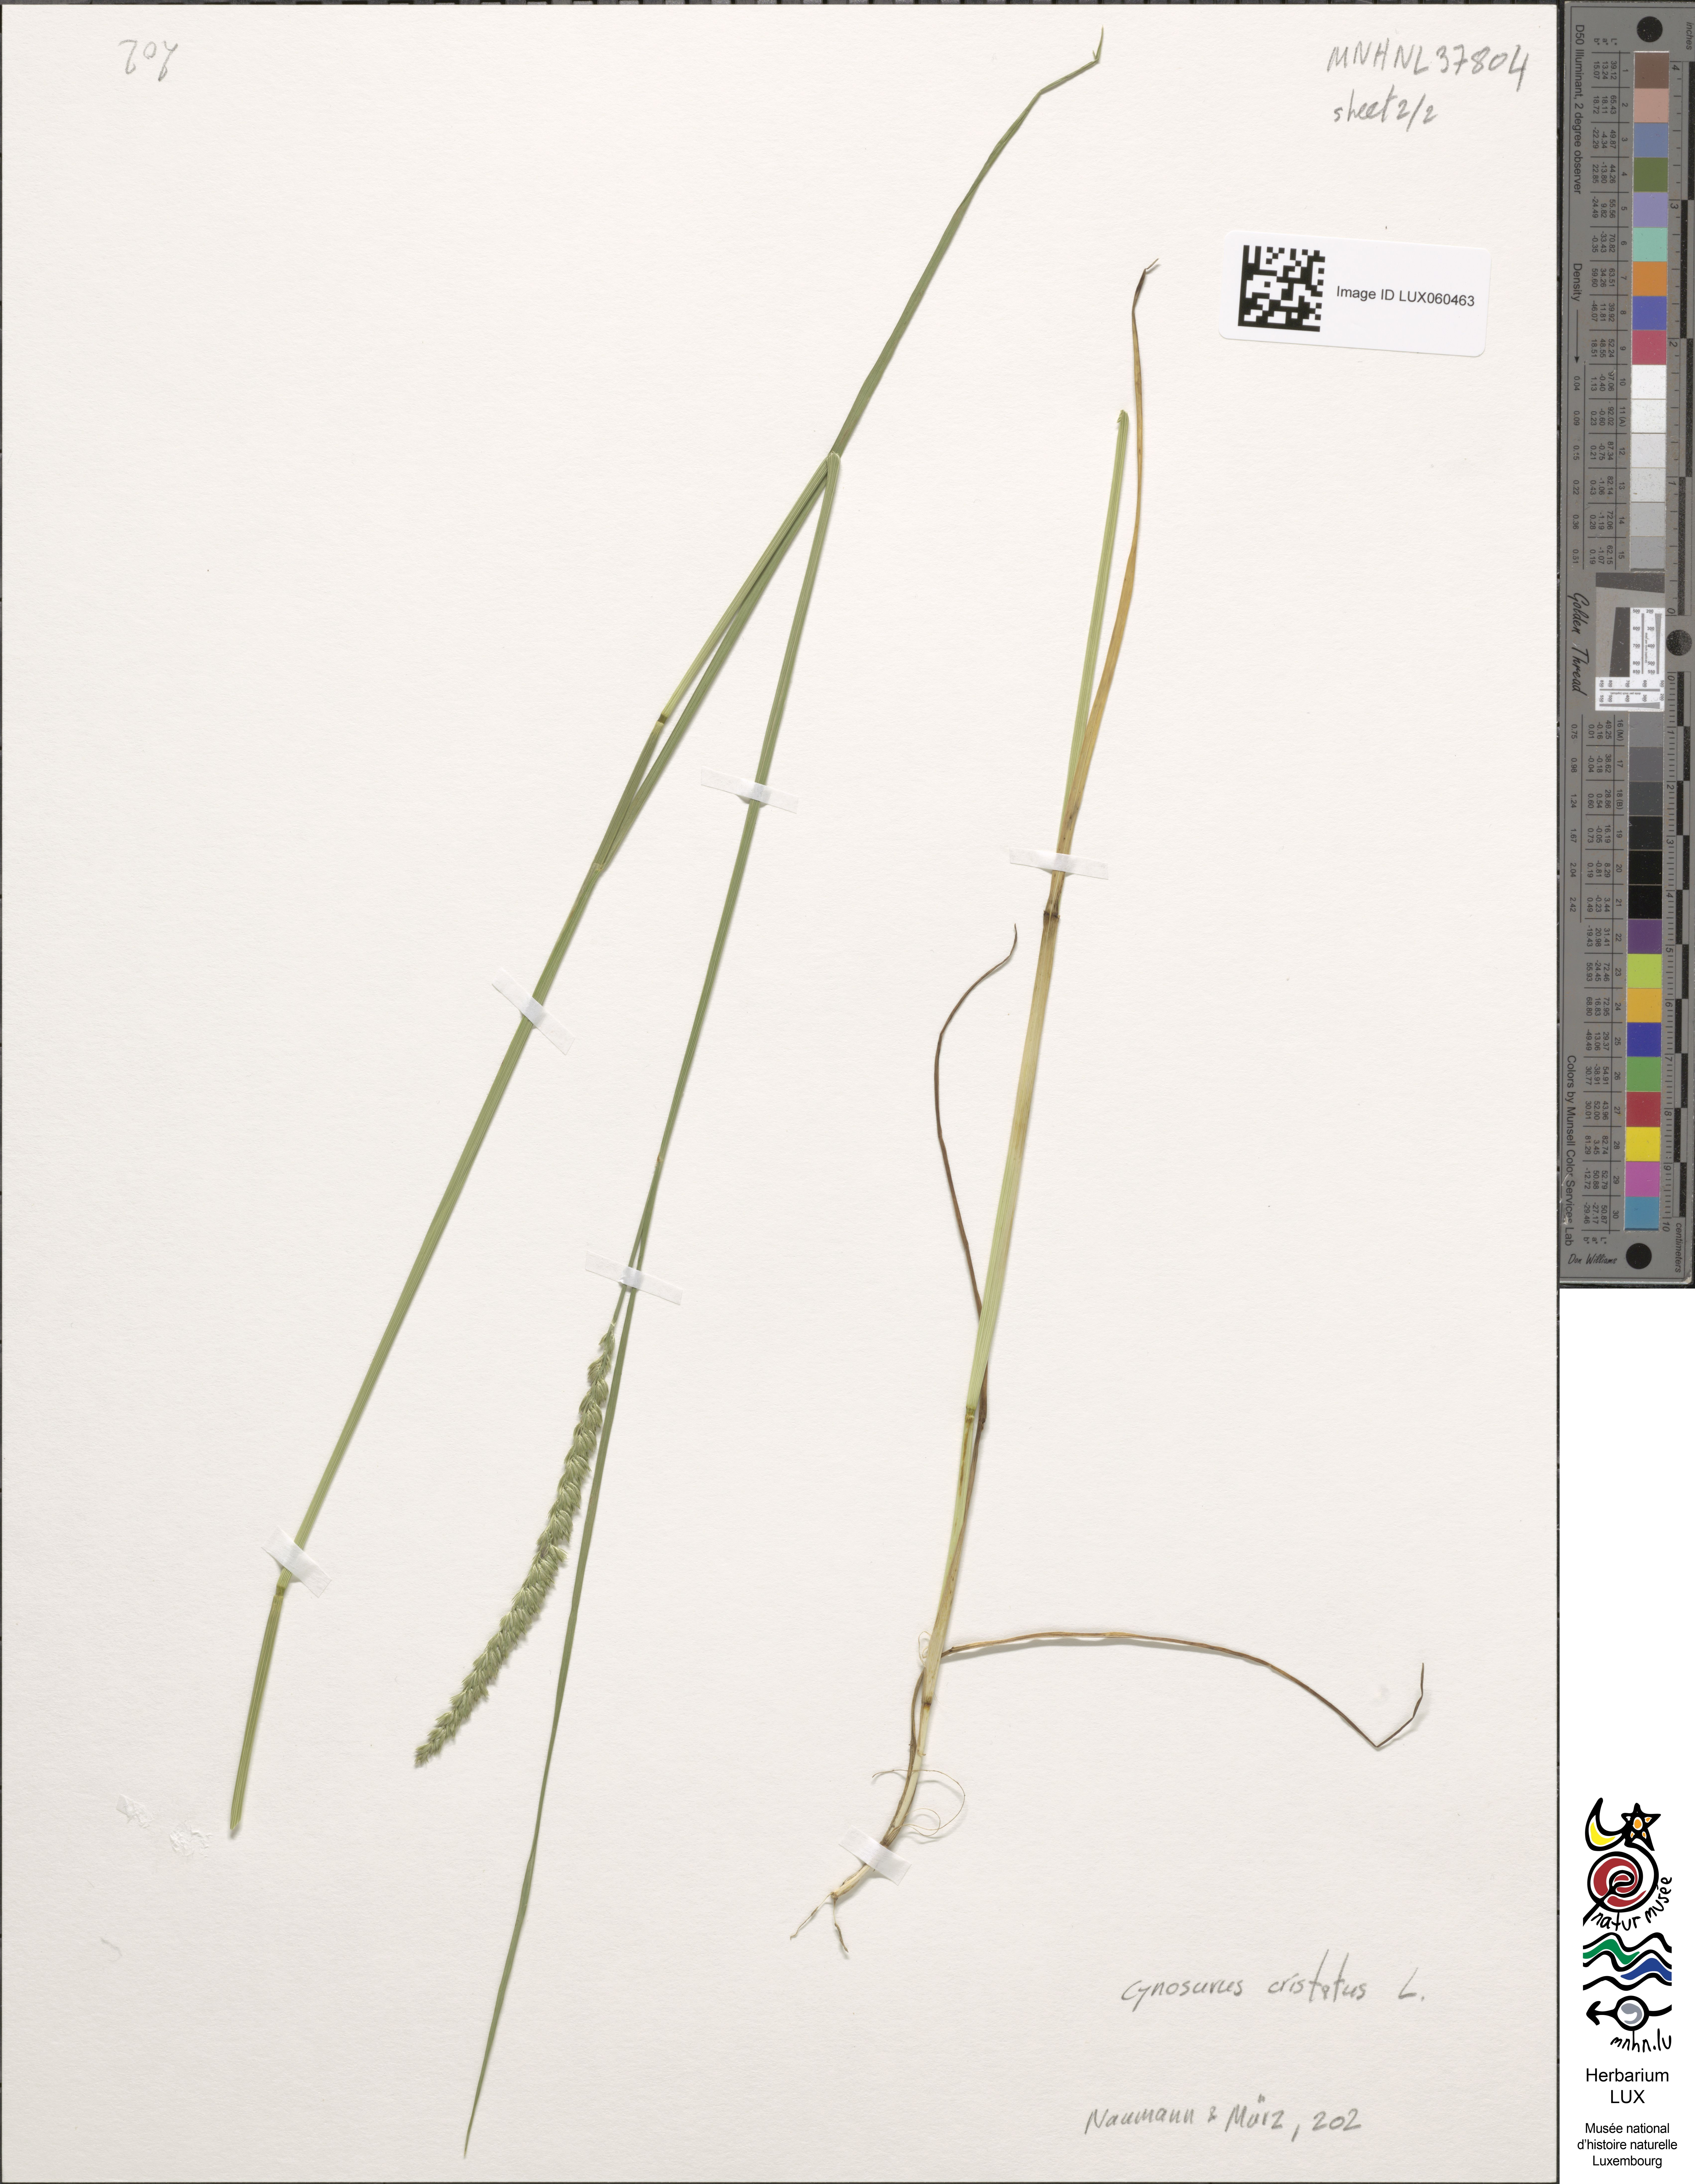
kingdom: Plantae
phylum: Tracheophyta
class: Liliopsida
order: Poales
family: Poaceae
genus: Cynosurus
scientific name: Cynosurus cristatus
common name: Crested dog's-tail
